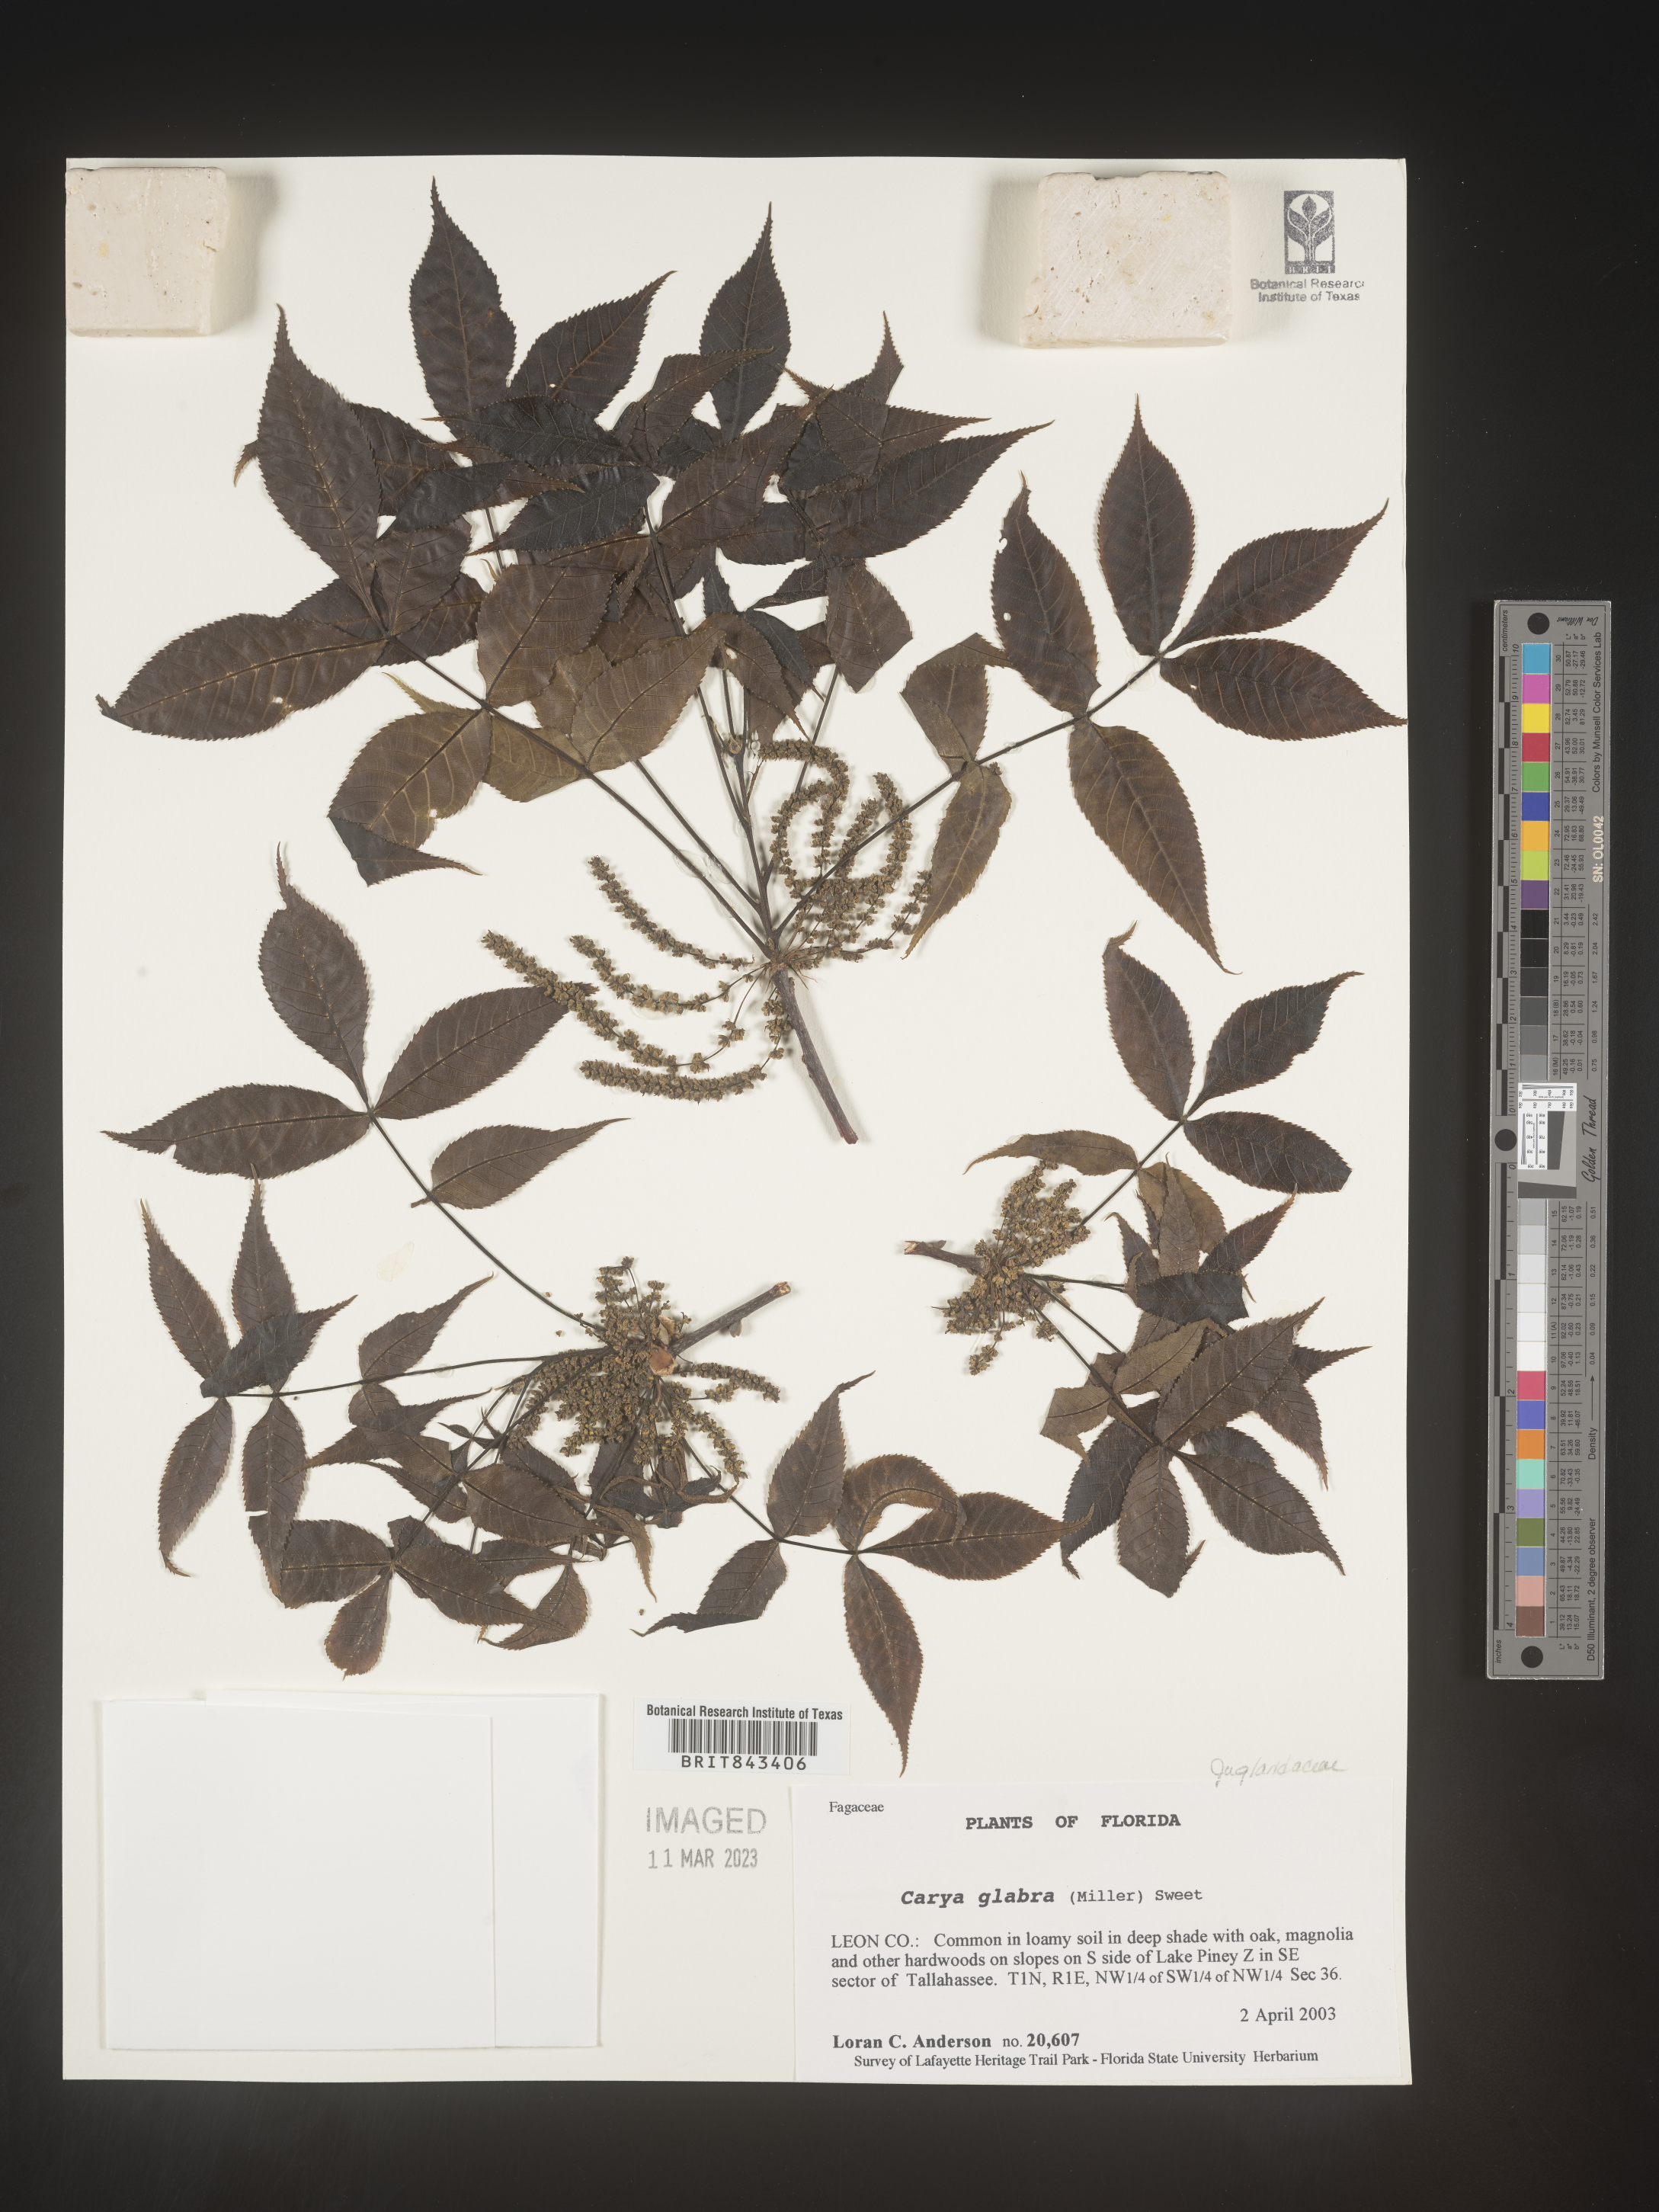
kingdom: Plantae
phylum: Tracheophyta
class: Magnoliopsida
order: Fagales
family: Juglandaceae
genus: Carya
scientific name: Carya glabra
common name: Pignut hickory
